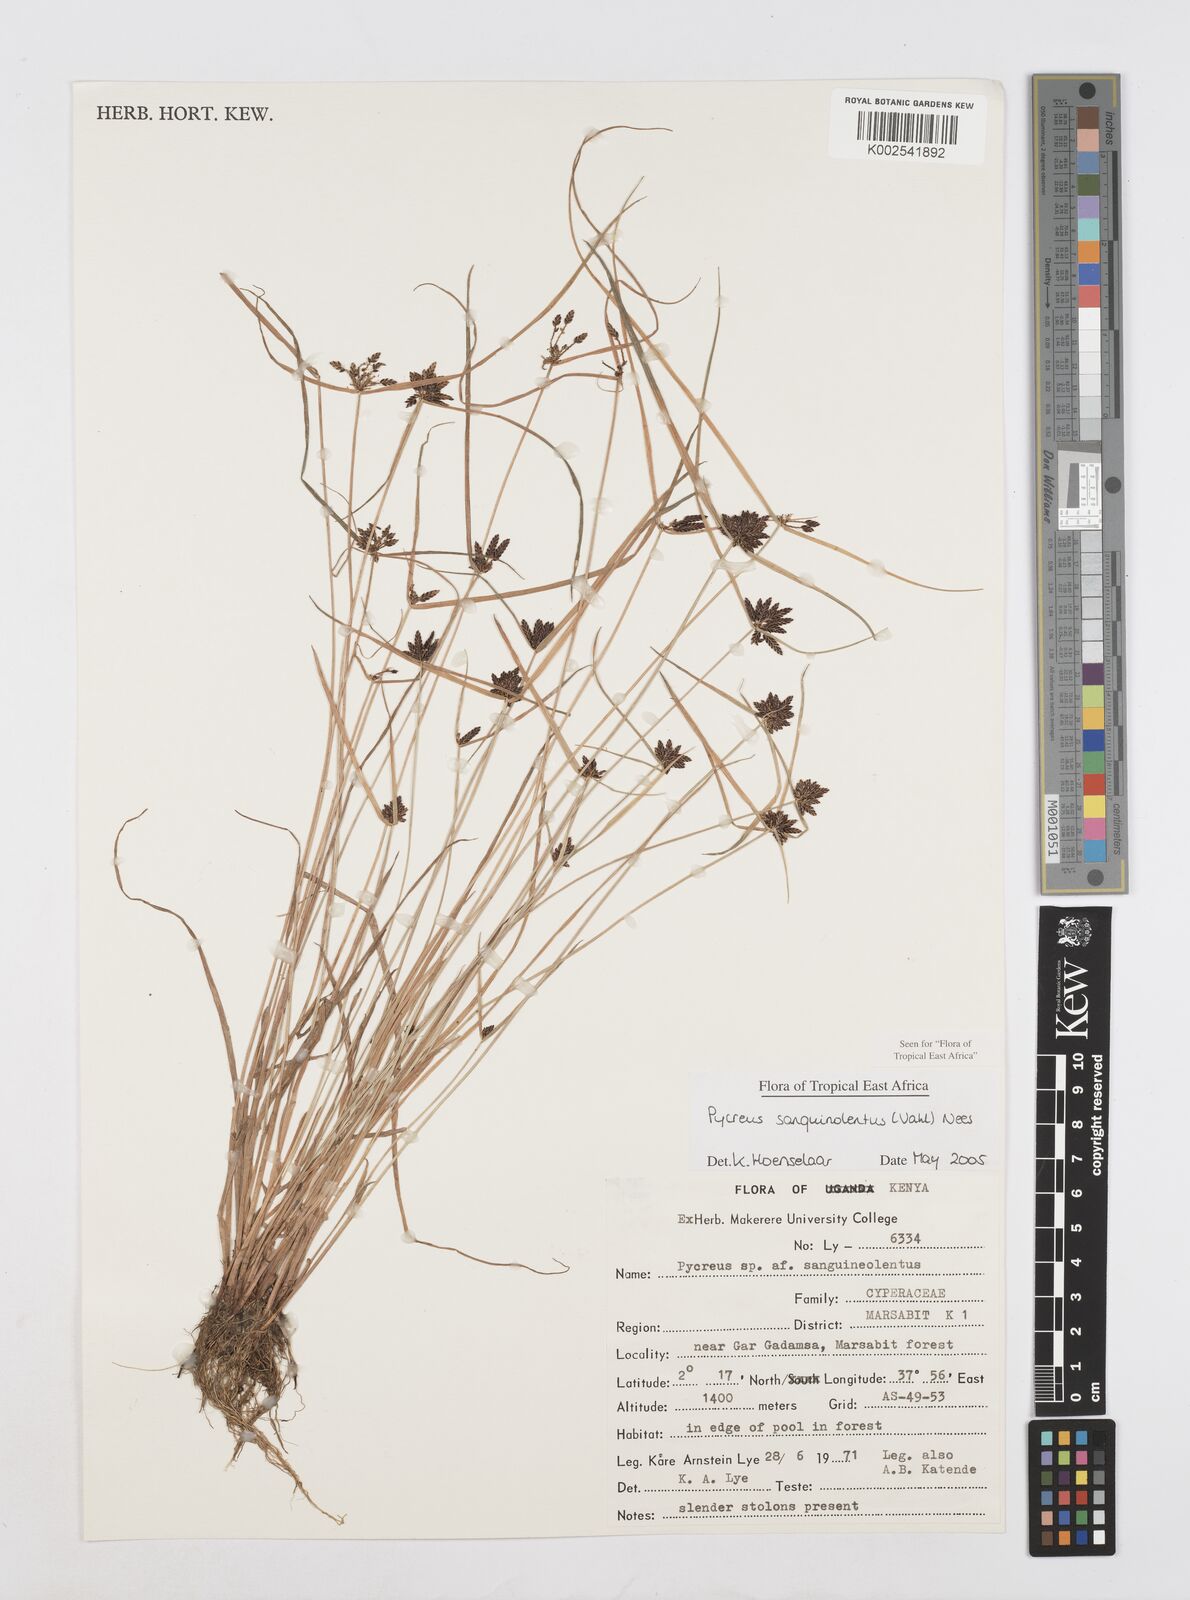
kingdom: Plantae
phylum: Tracheophyta
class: Liliopsida
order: Poales
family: Cyperaceae
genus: Cyperus
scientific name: Cyperus sanguinolentus
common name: Purpleglume flatsedge
